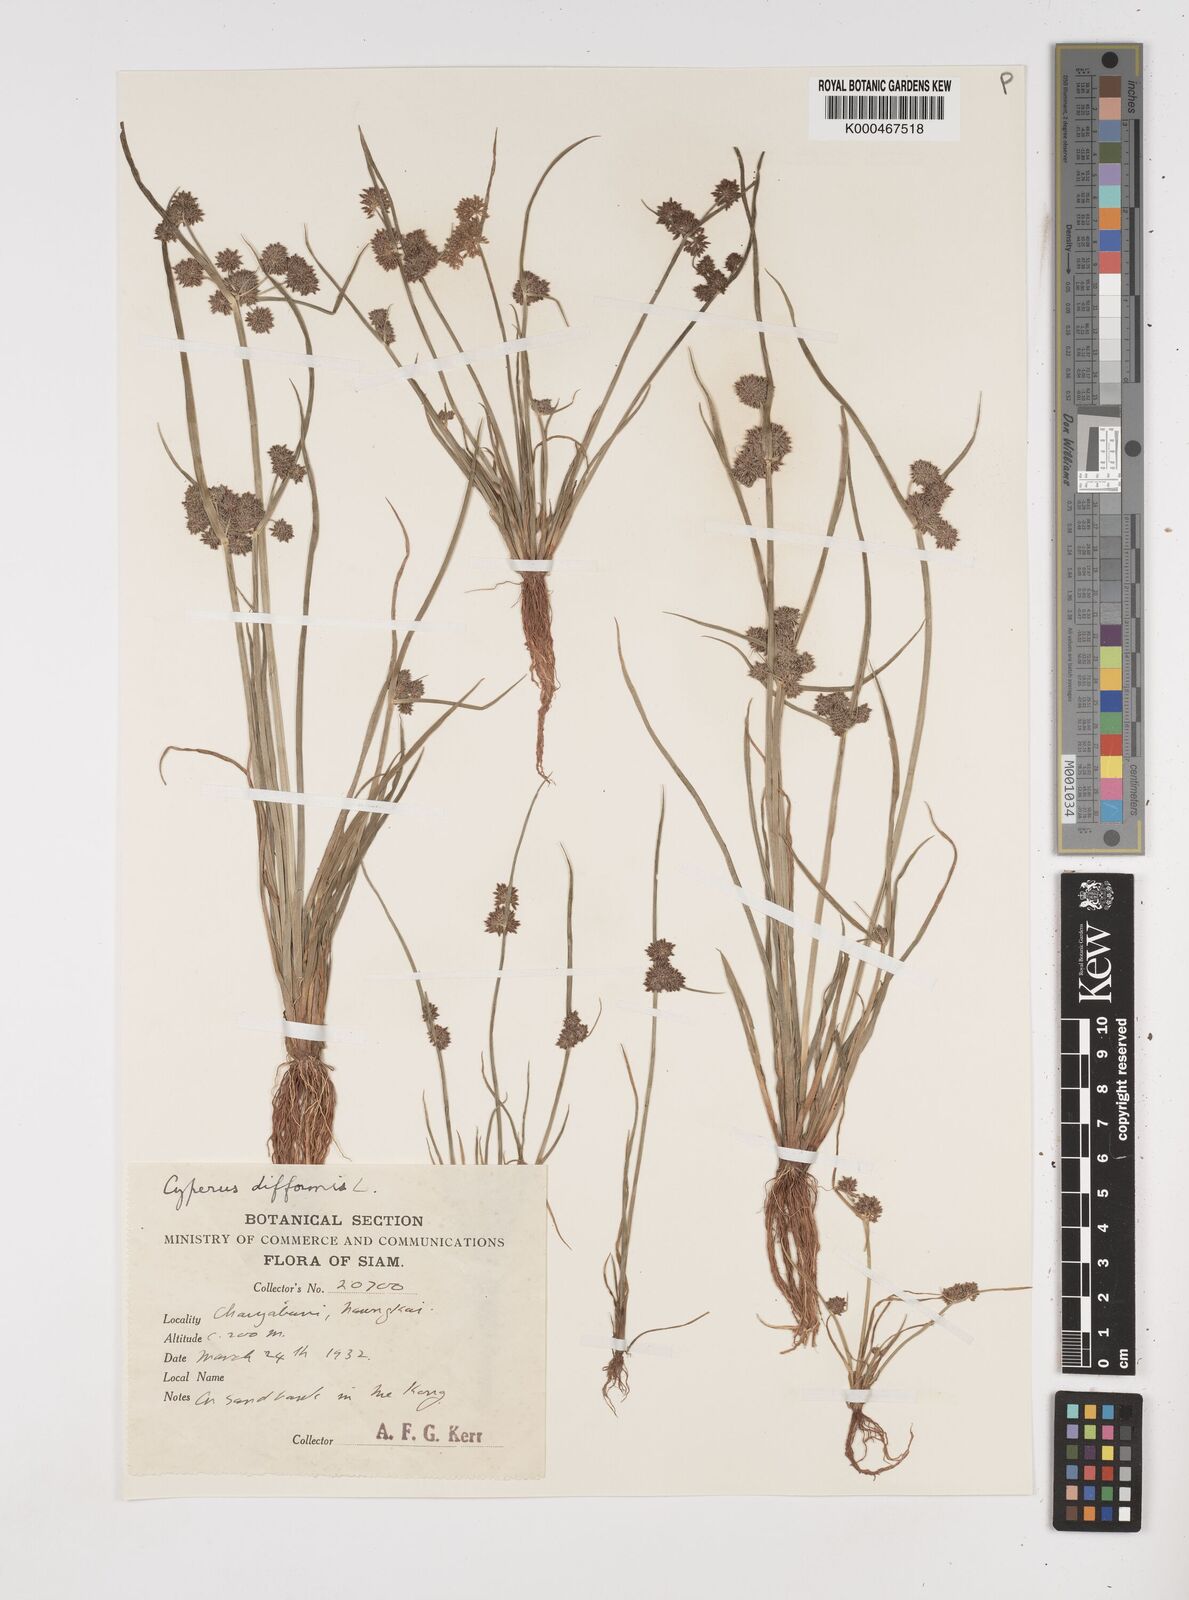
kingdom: Plantae
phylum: Tracheophyta
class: Liliopsida
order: Poales
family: Cyperaceae
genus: Cyperus
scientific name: Cyperus difformis
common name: Variable flatsedge
